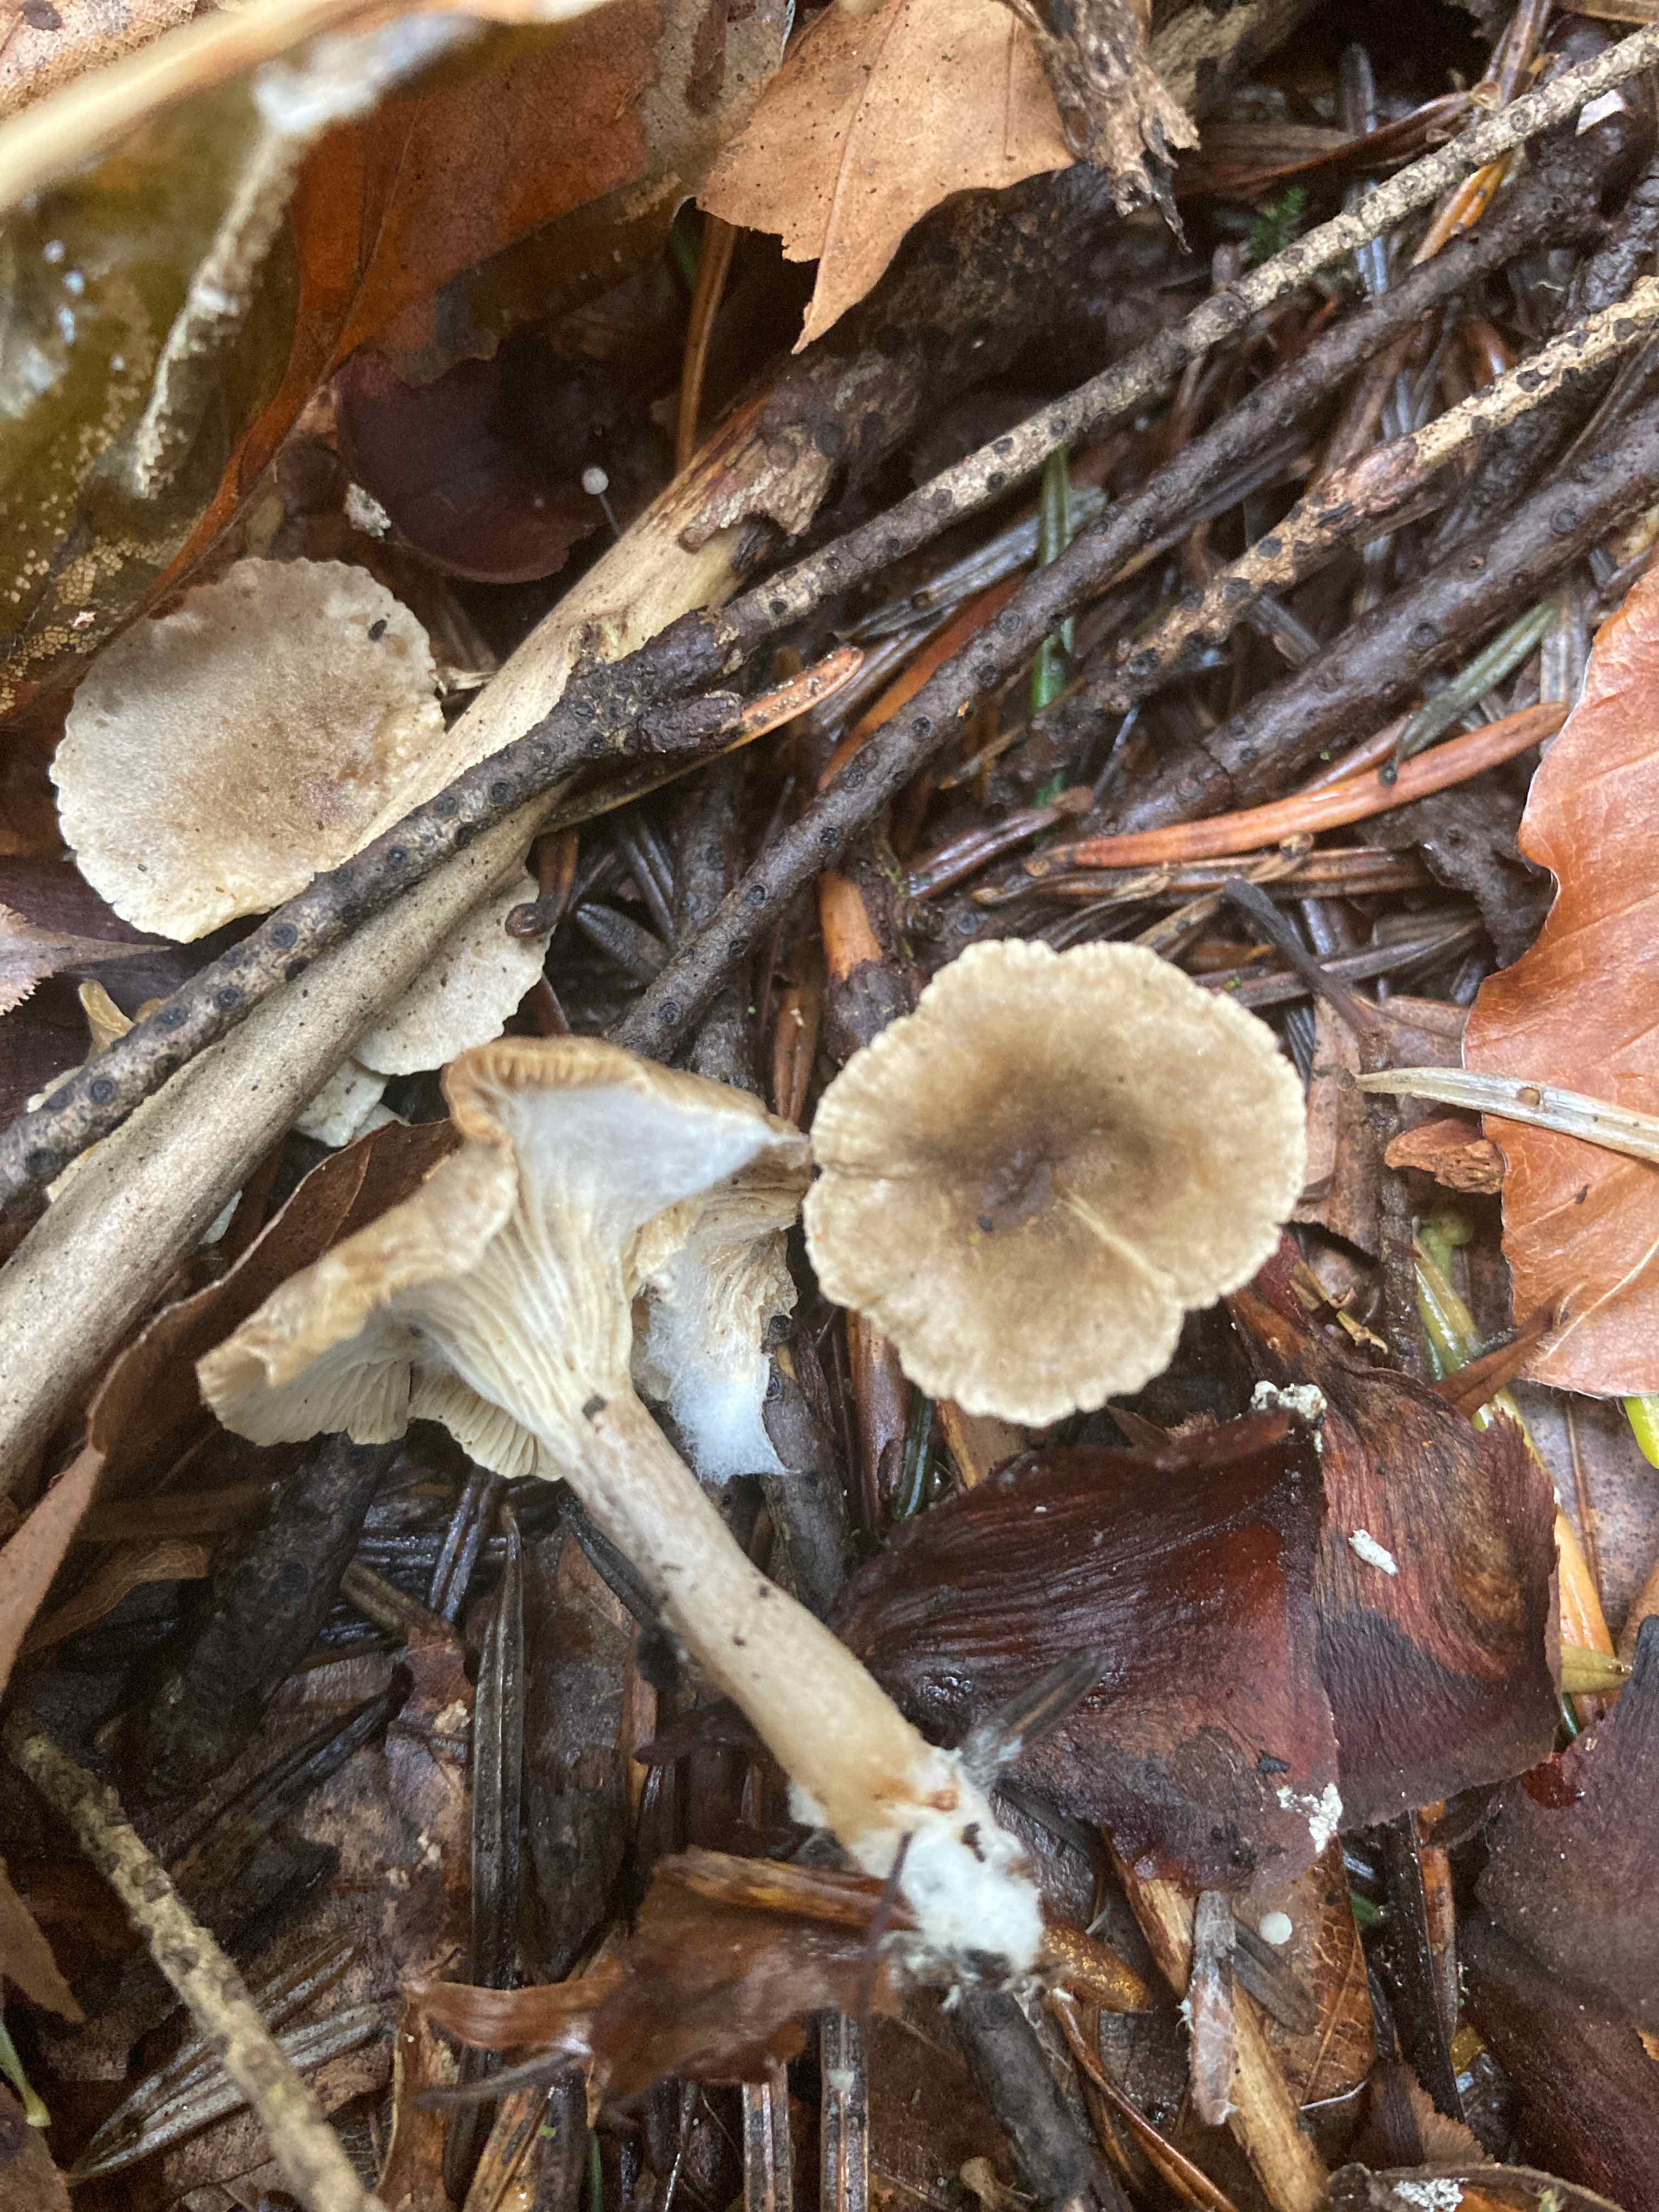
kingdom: Fungi
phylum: Basidiomycota
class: Agaricomycetes
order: Agaricales
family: Hygrophoraceae
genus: Spodocybe
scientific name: Spodocybe trulliformis
